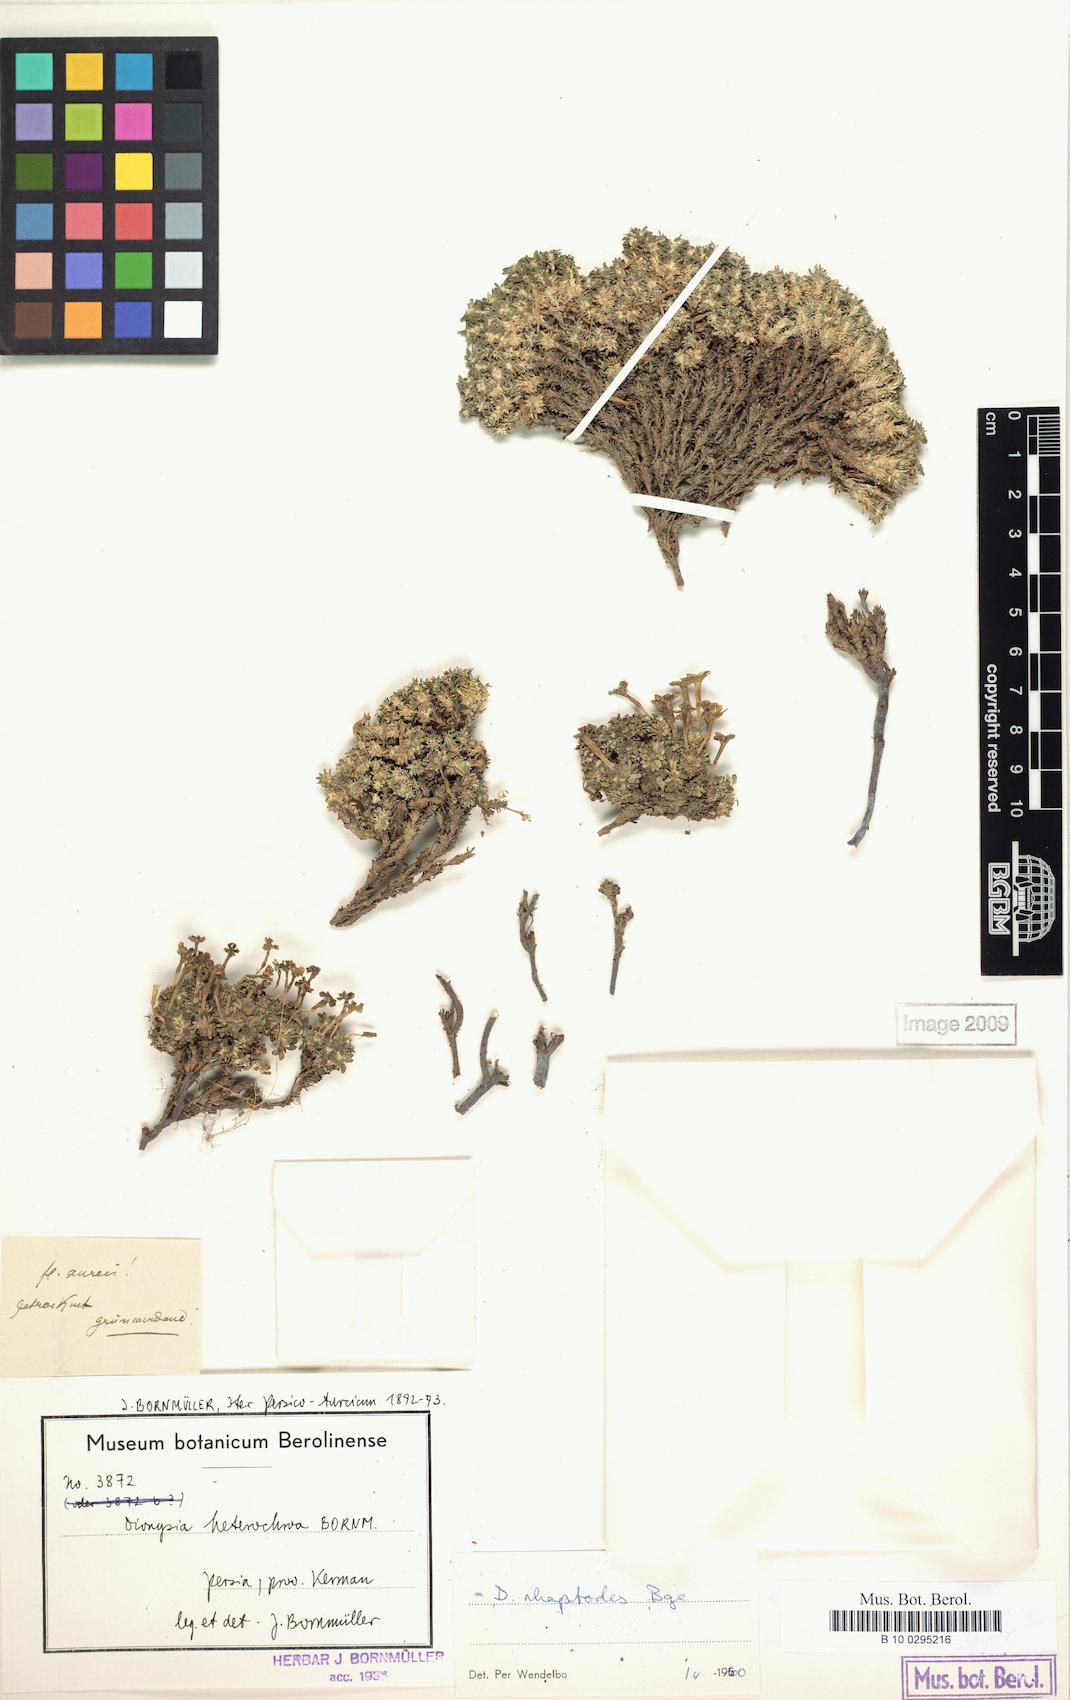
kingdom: Plantae
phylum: Tracheophyta
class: Magnoliopsida
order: Ericales
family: Primulaceae
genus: Dionysia
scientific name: Dionysia rhaptodes
